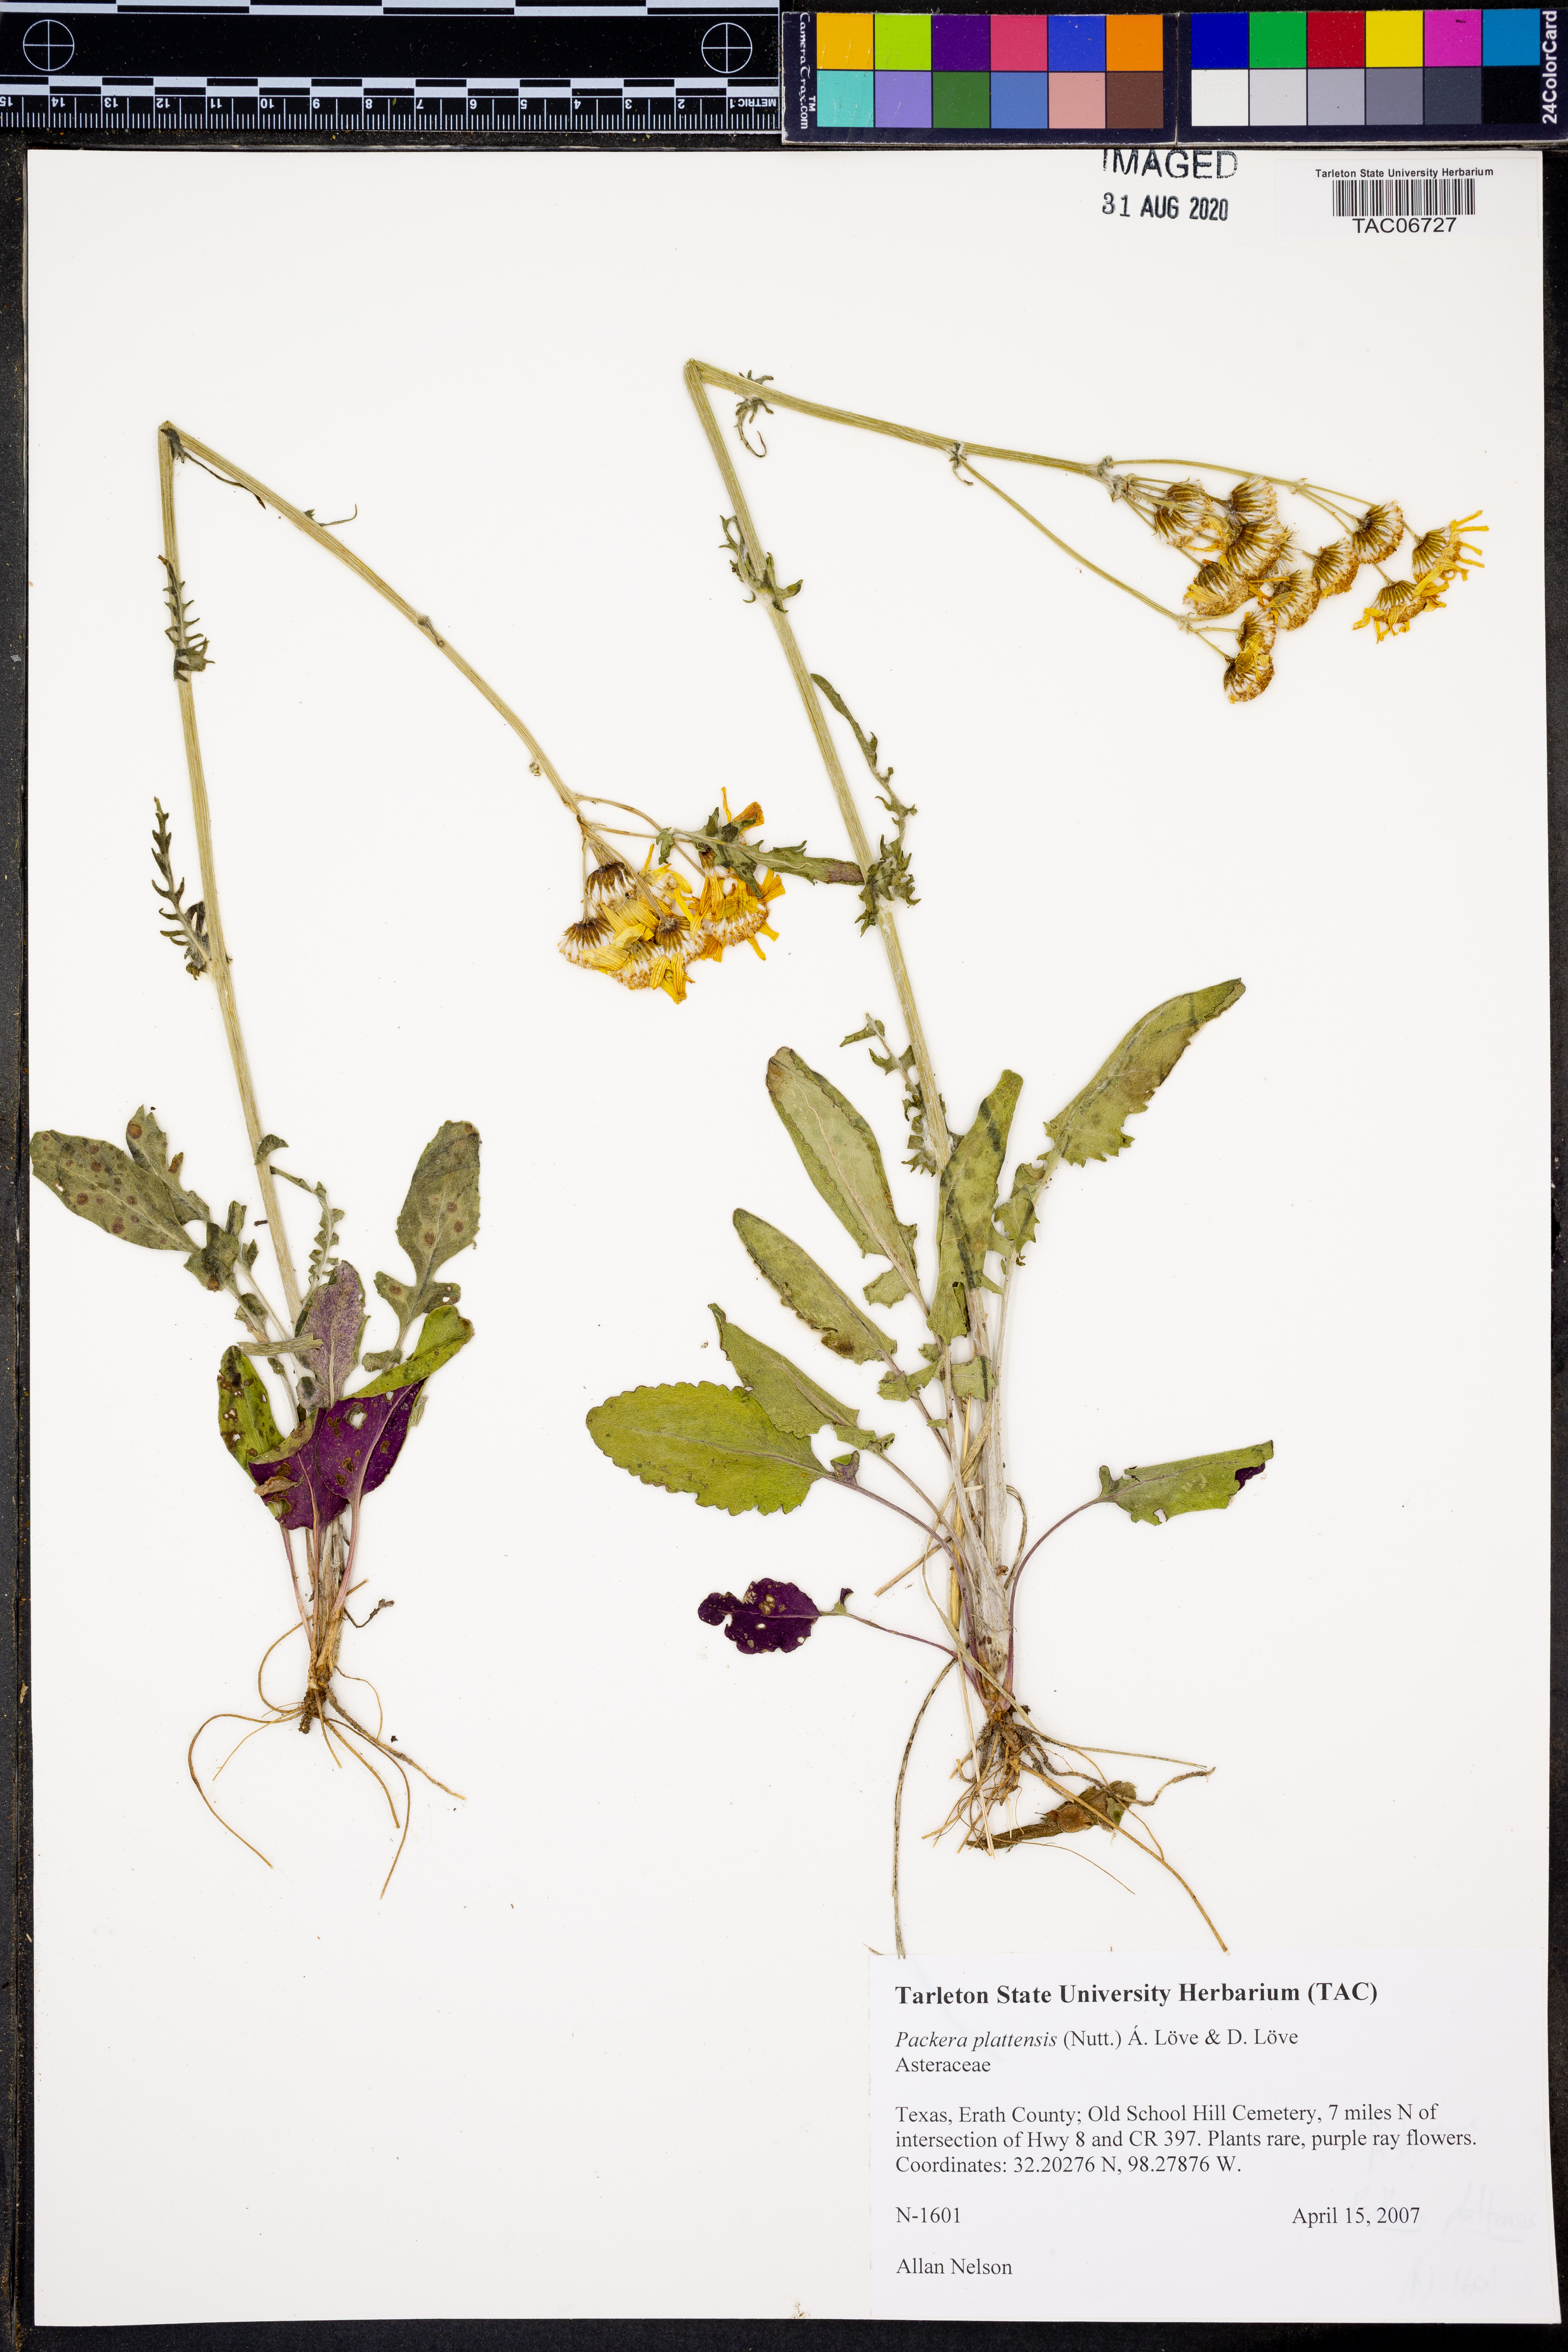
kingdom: Plantae
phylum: Tracheophyta
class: Magnoliopsida
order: Asterales
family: Asteraceae
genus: Packera
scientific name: Packera plattensis
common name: Prairie groundsel
